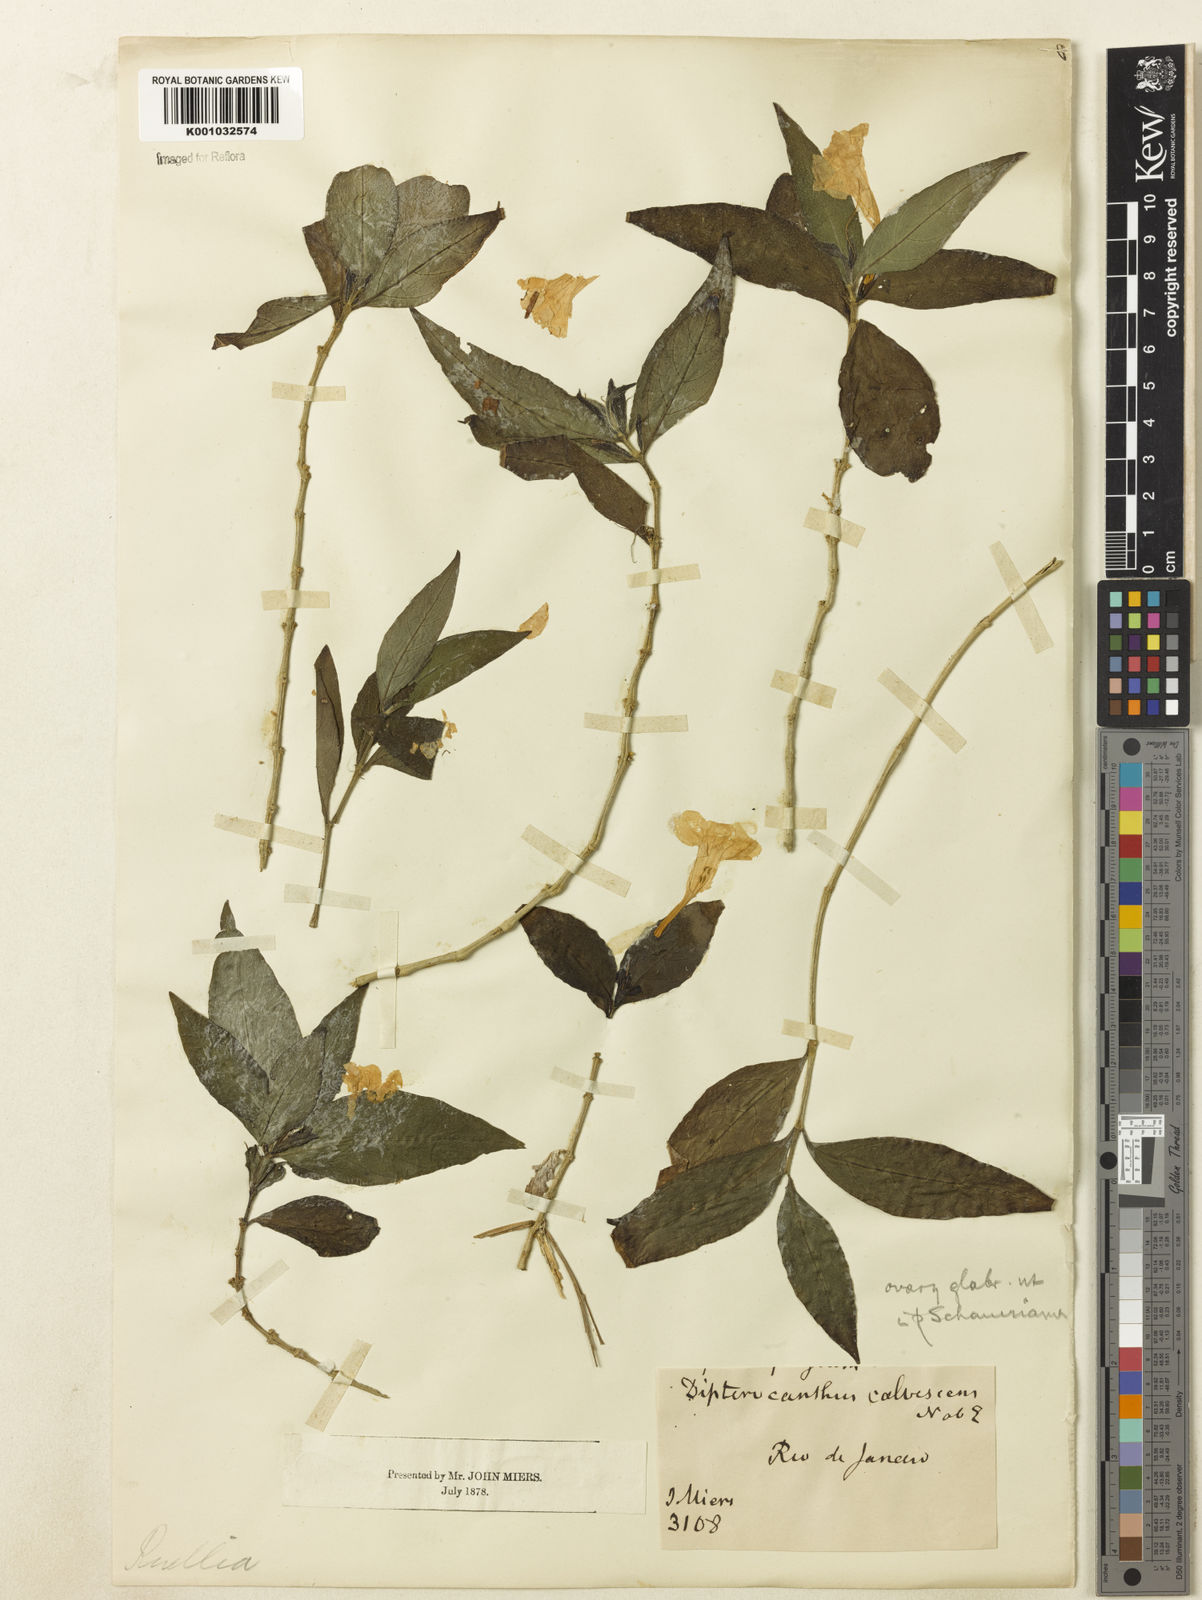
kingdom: Plantae
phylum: Tracheophyta
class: Magnoliopsida
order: Lamiales
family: Acanthaceae
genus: Ruellia
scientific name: Ruellia solitaria
